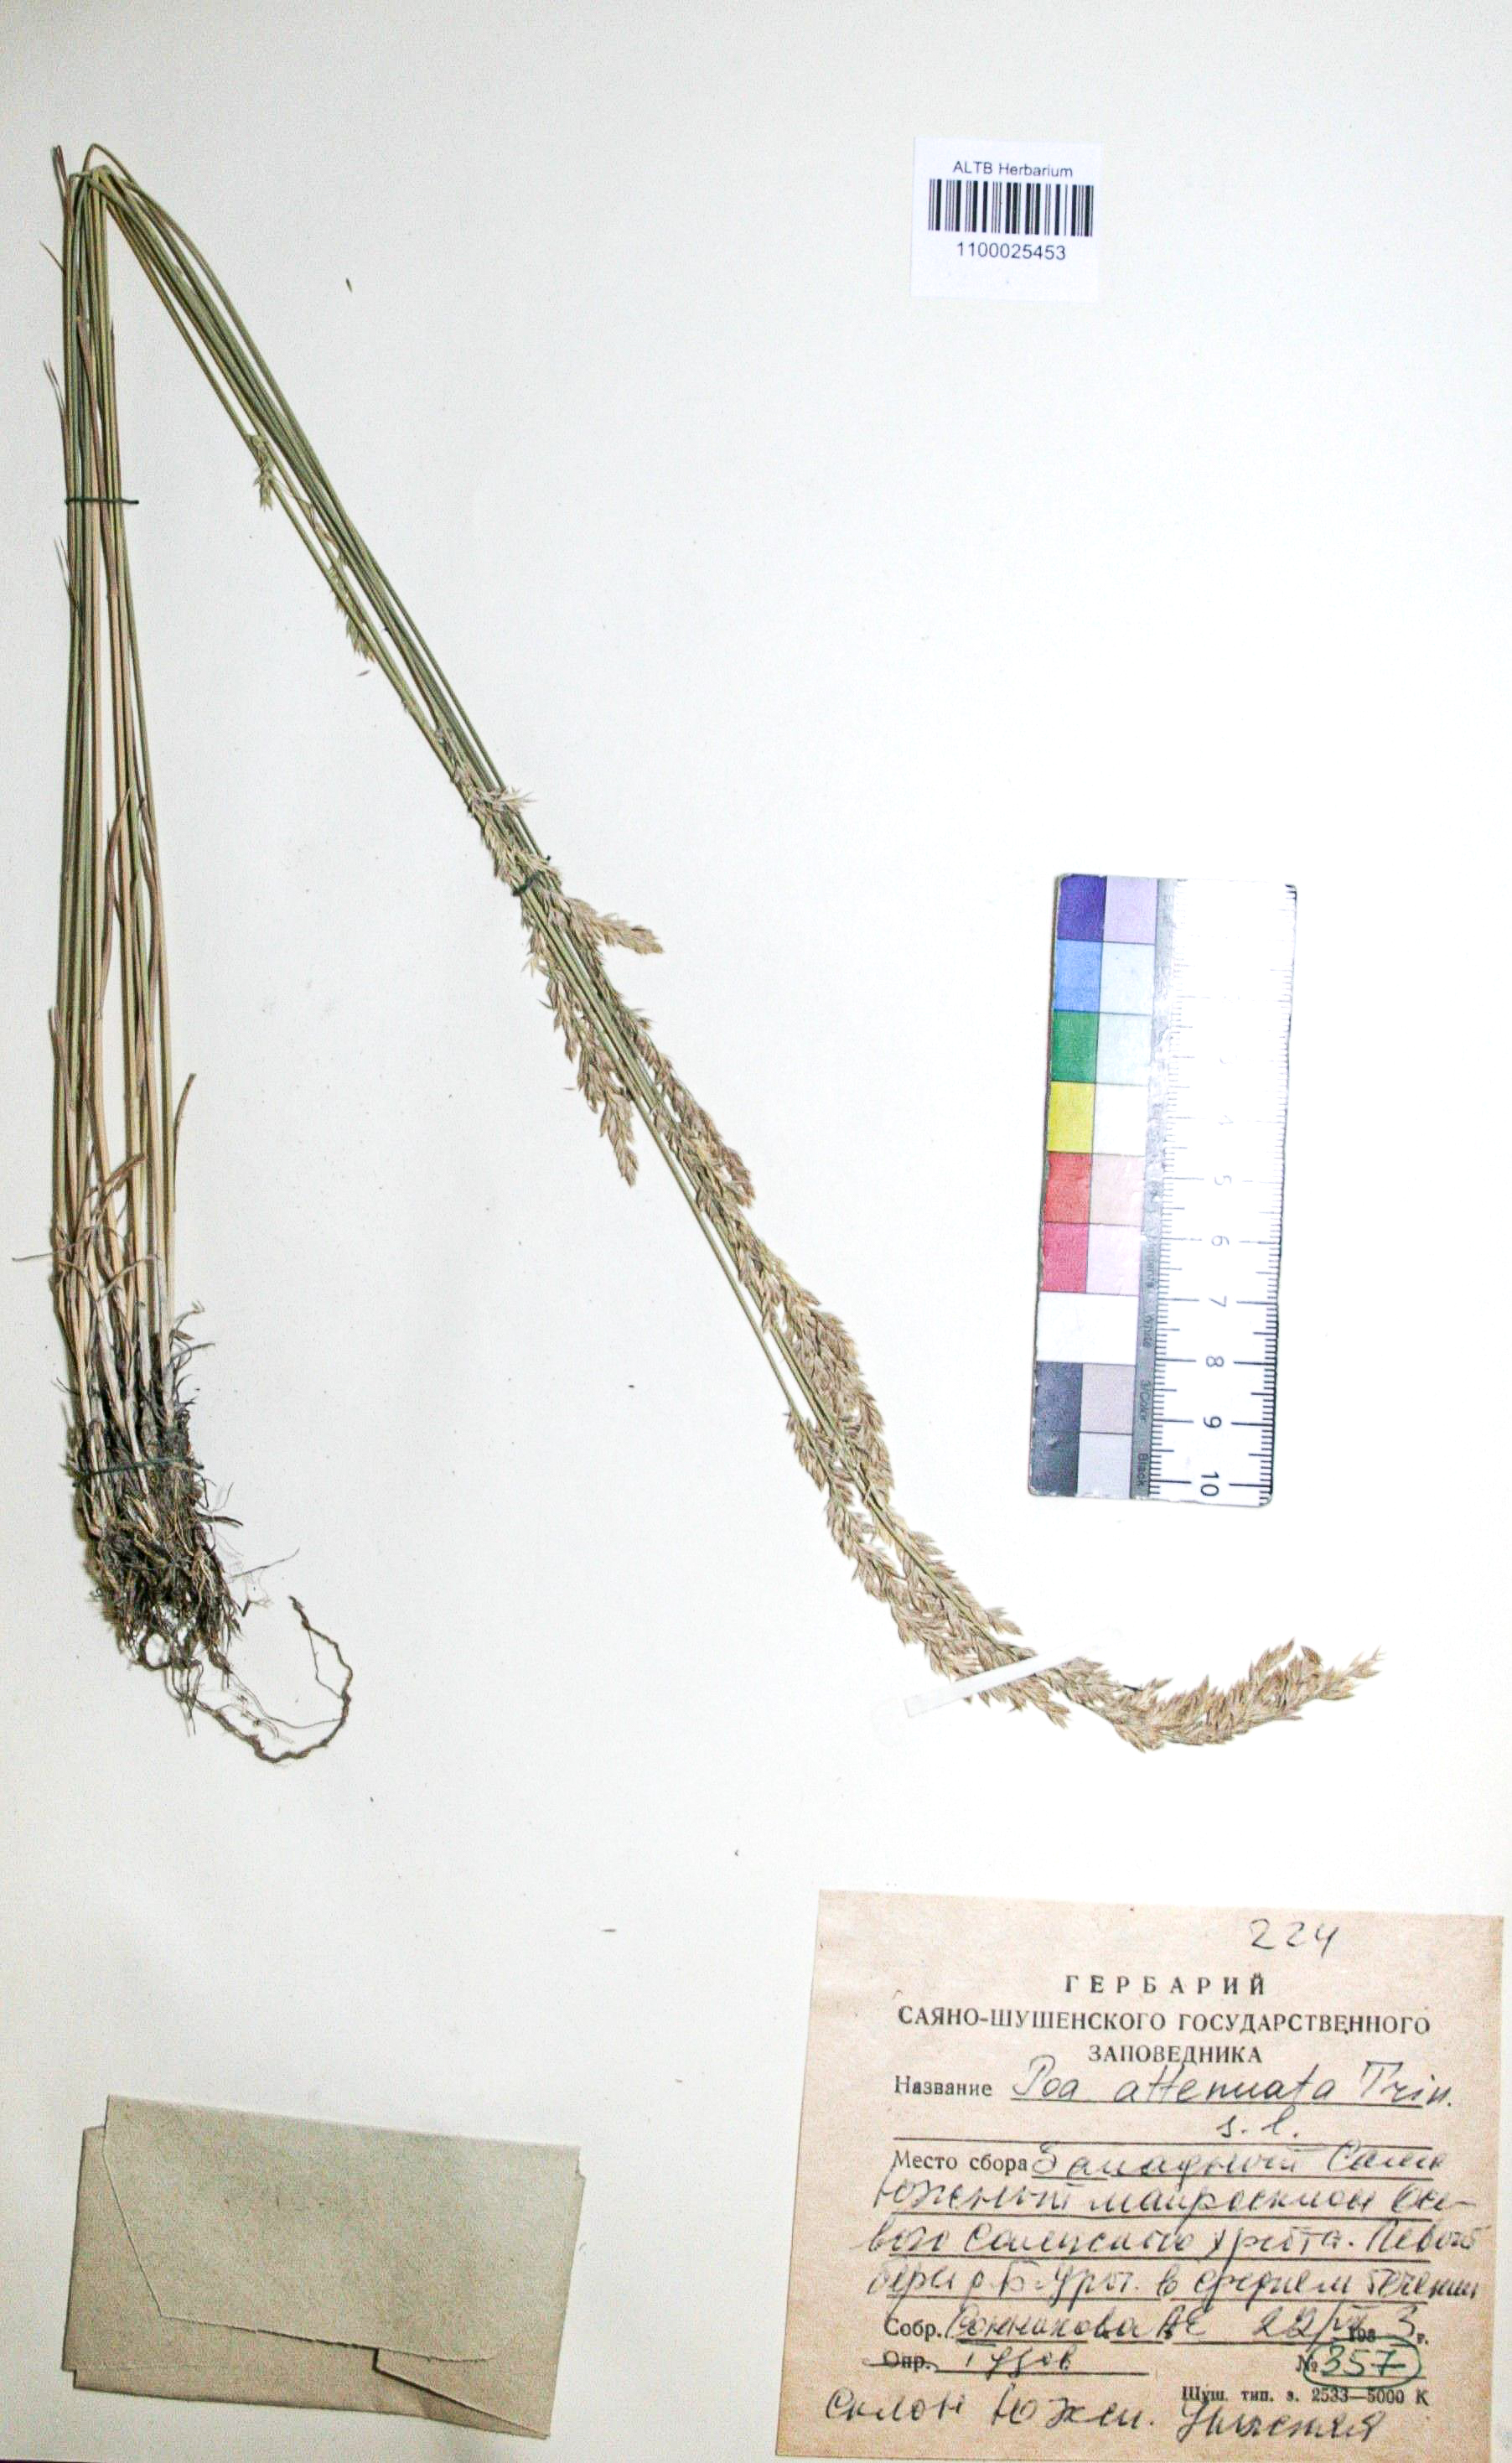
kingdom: Plantae
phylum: Tracheophyta
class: Liliopsida
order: Poales
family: Poaceae
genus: Poa
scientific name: Poa attenuata
